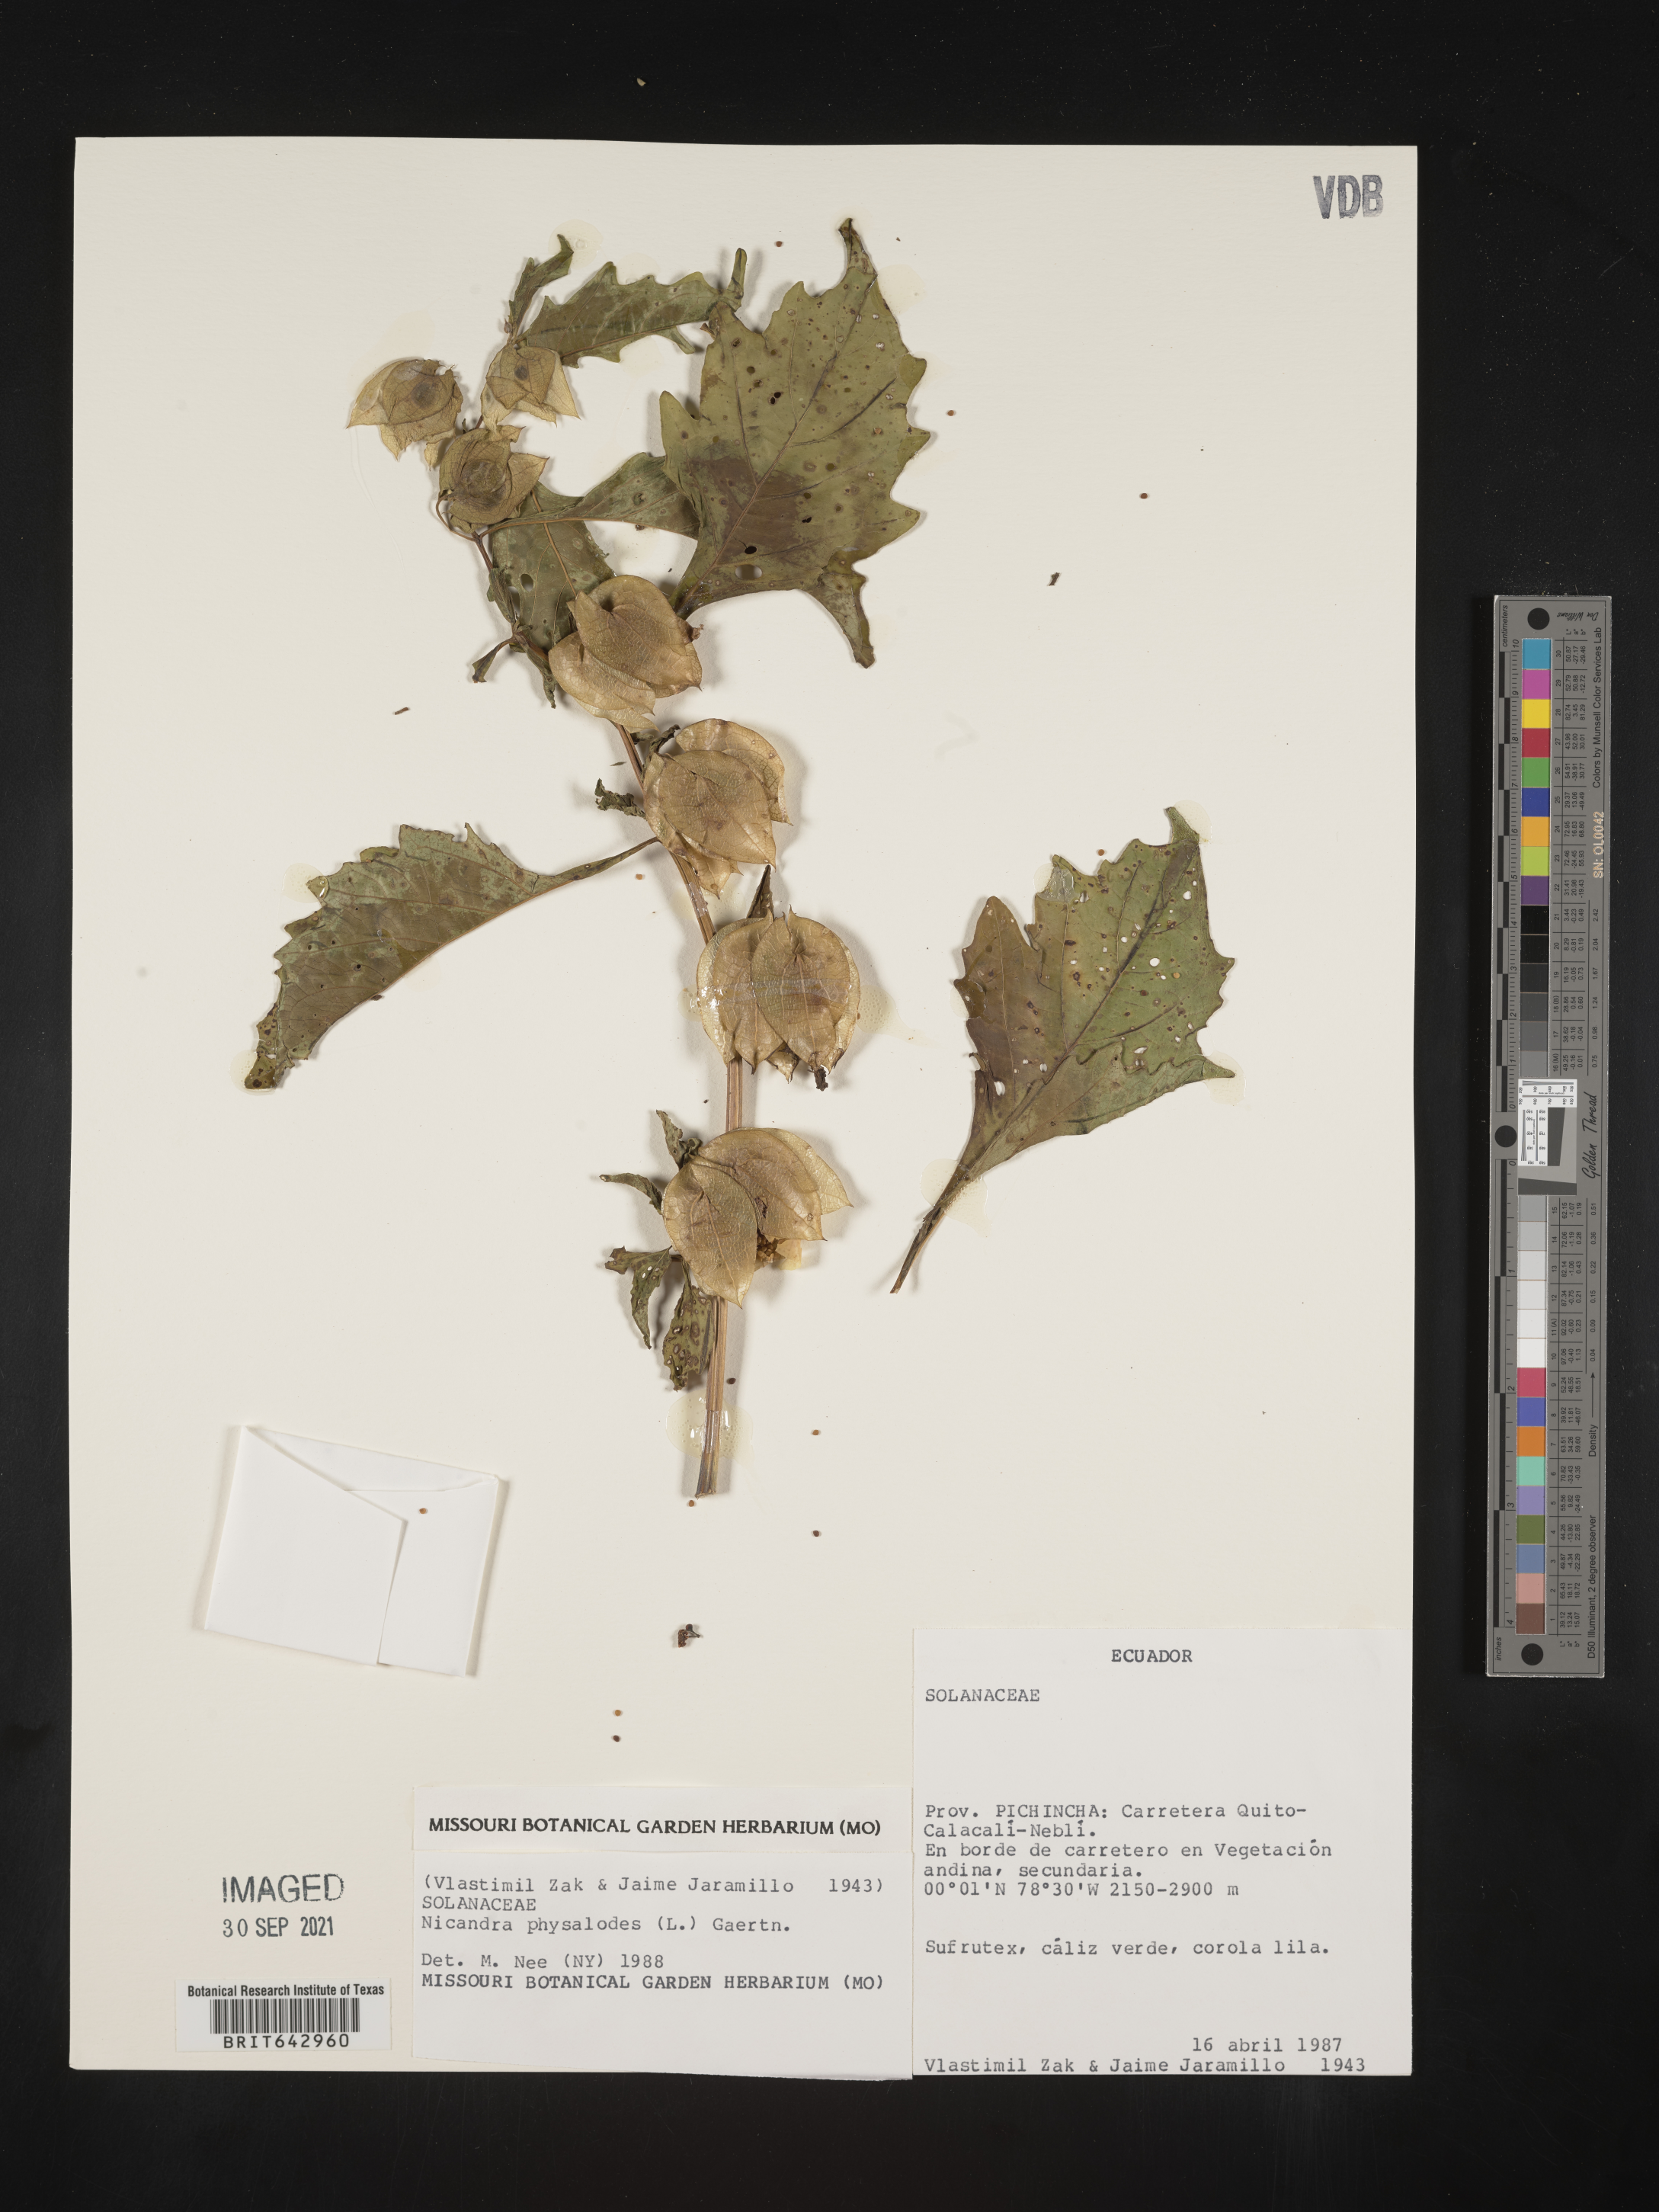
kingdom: Plantae
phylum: Tracheophyta
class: Magnoliopsida
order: Solanales
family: Solanaceae
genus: Nicandra
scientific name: Nicandra
